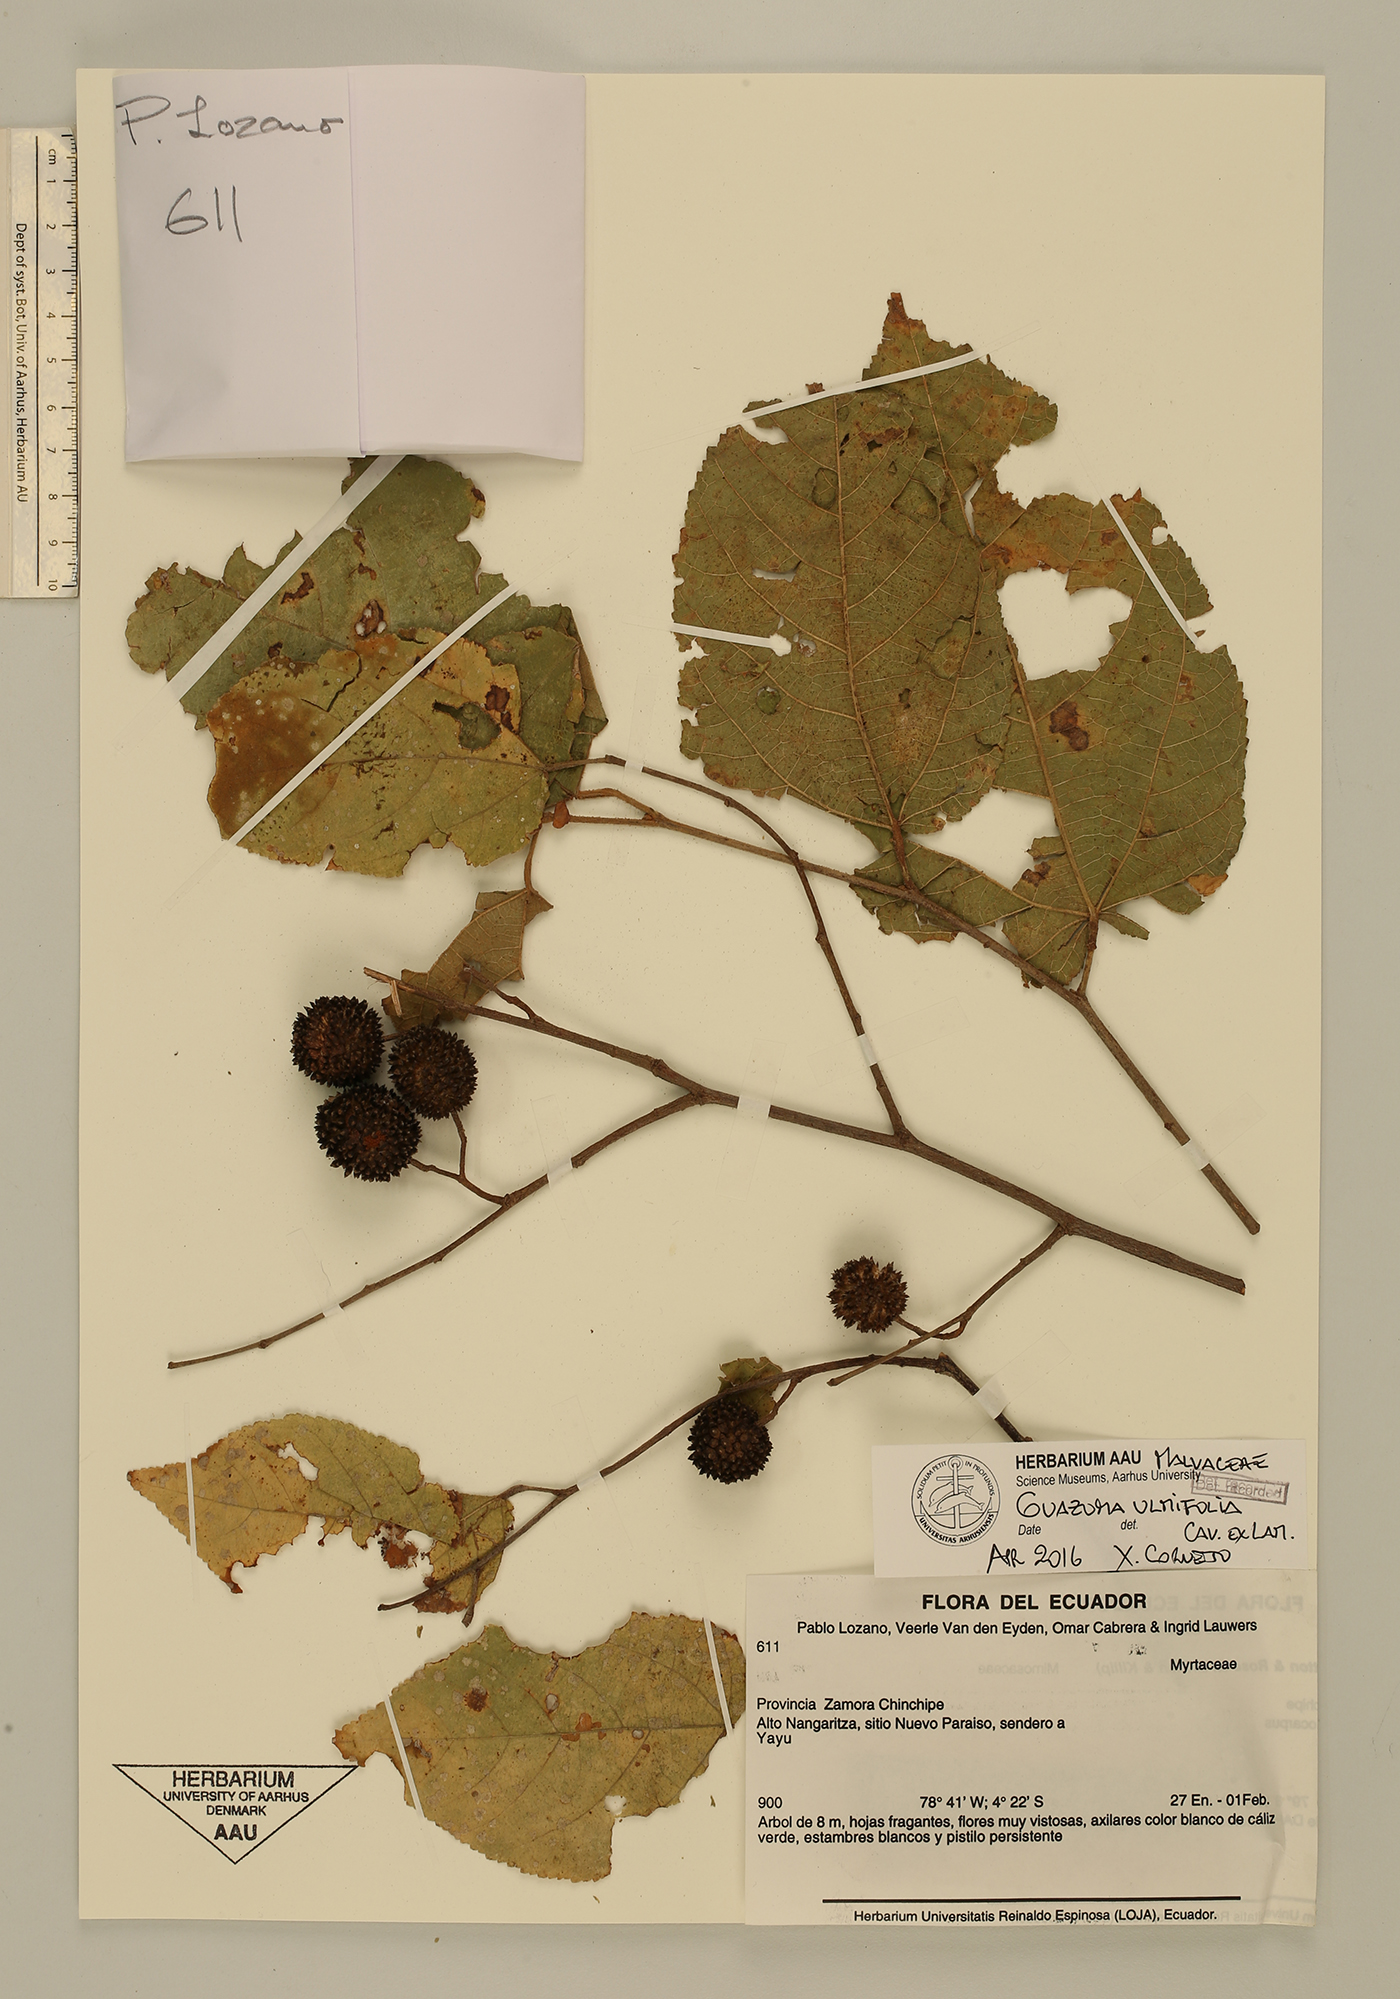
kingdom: Plantae
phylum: Tracheophyta
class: Magnoliopsida
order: Malvales
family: Malvaceae
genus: Guazuma
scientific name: Guazuma ulmifolia
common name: Bastard-cedar
